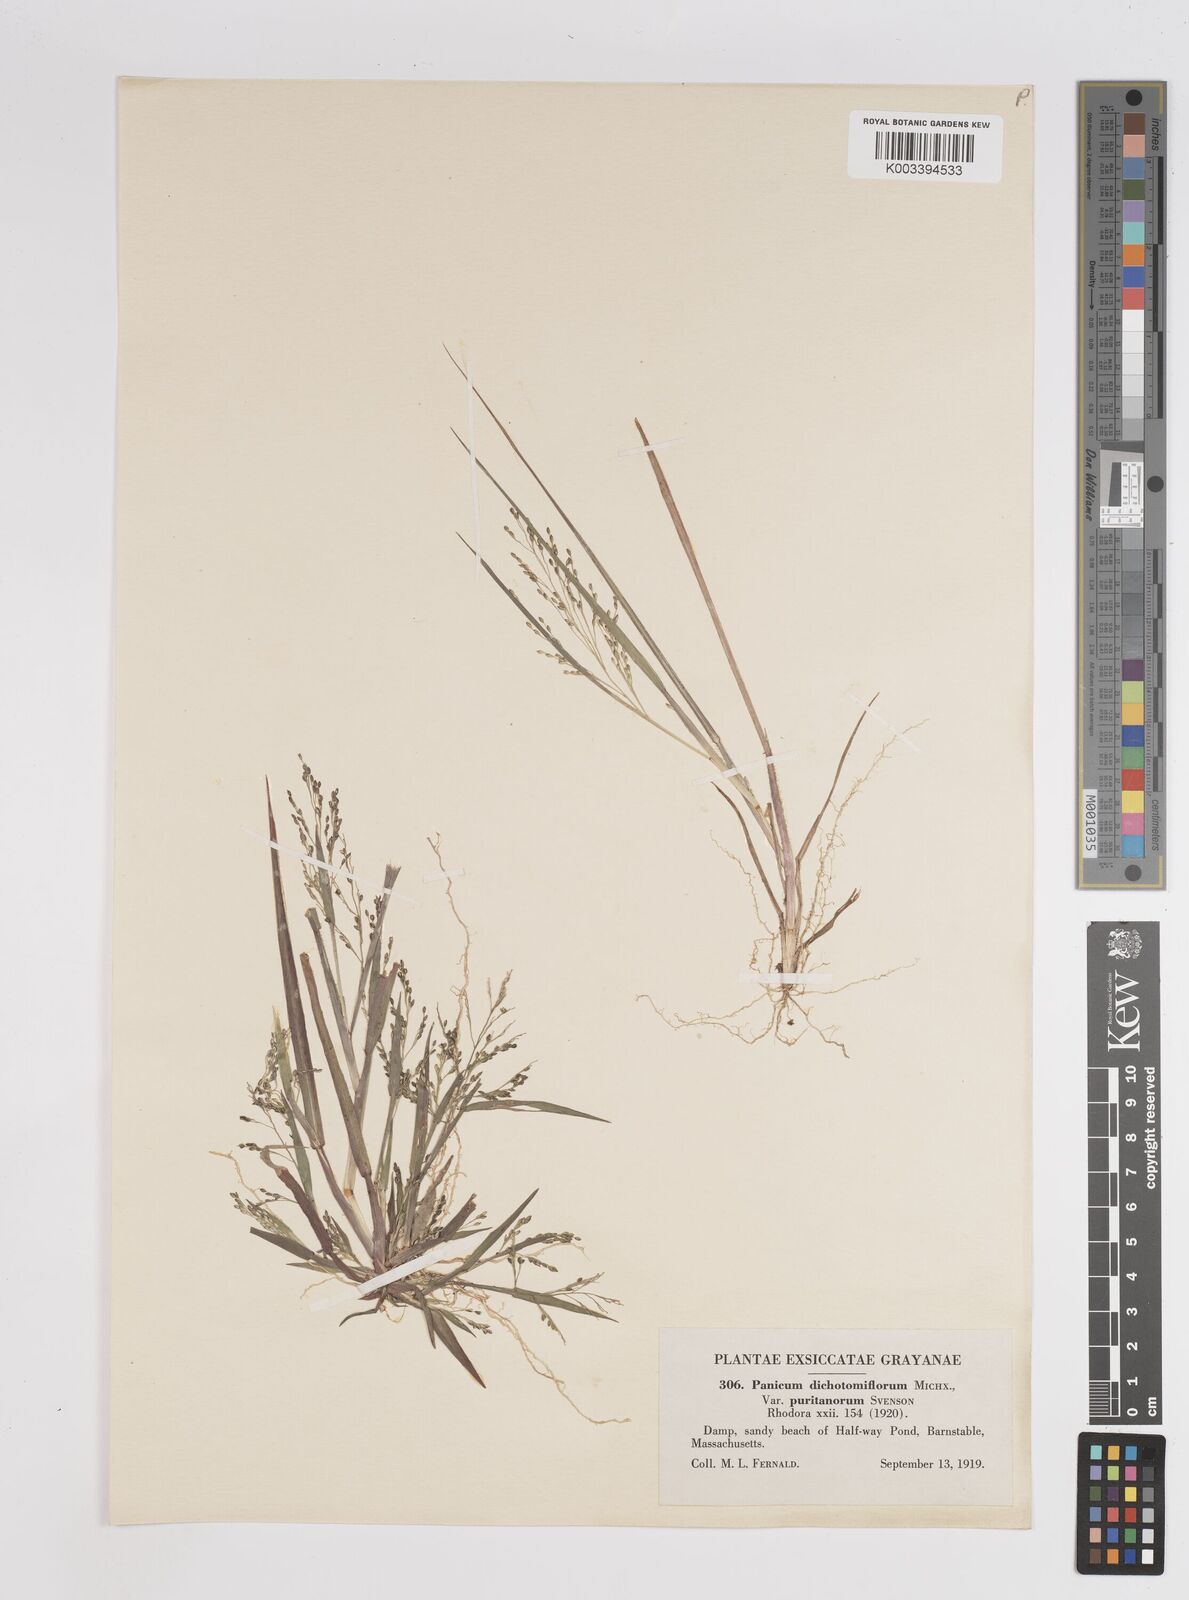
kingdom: Plantae
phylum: Tracheophyta
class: Liliopsida
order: Poales
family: Poaceae
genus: Panicum
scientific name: Panicum dichotomiflorum
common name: Autumn millet
